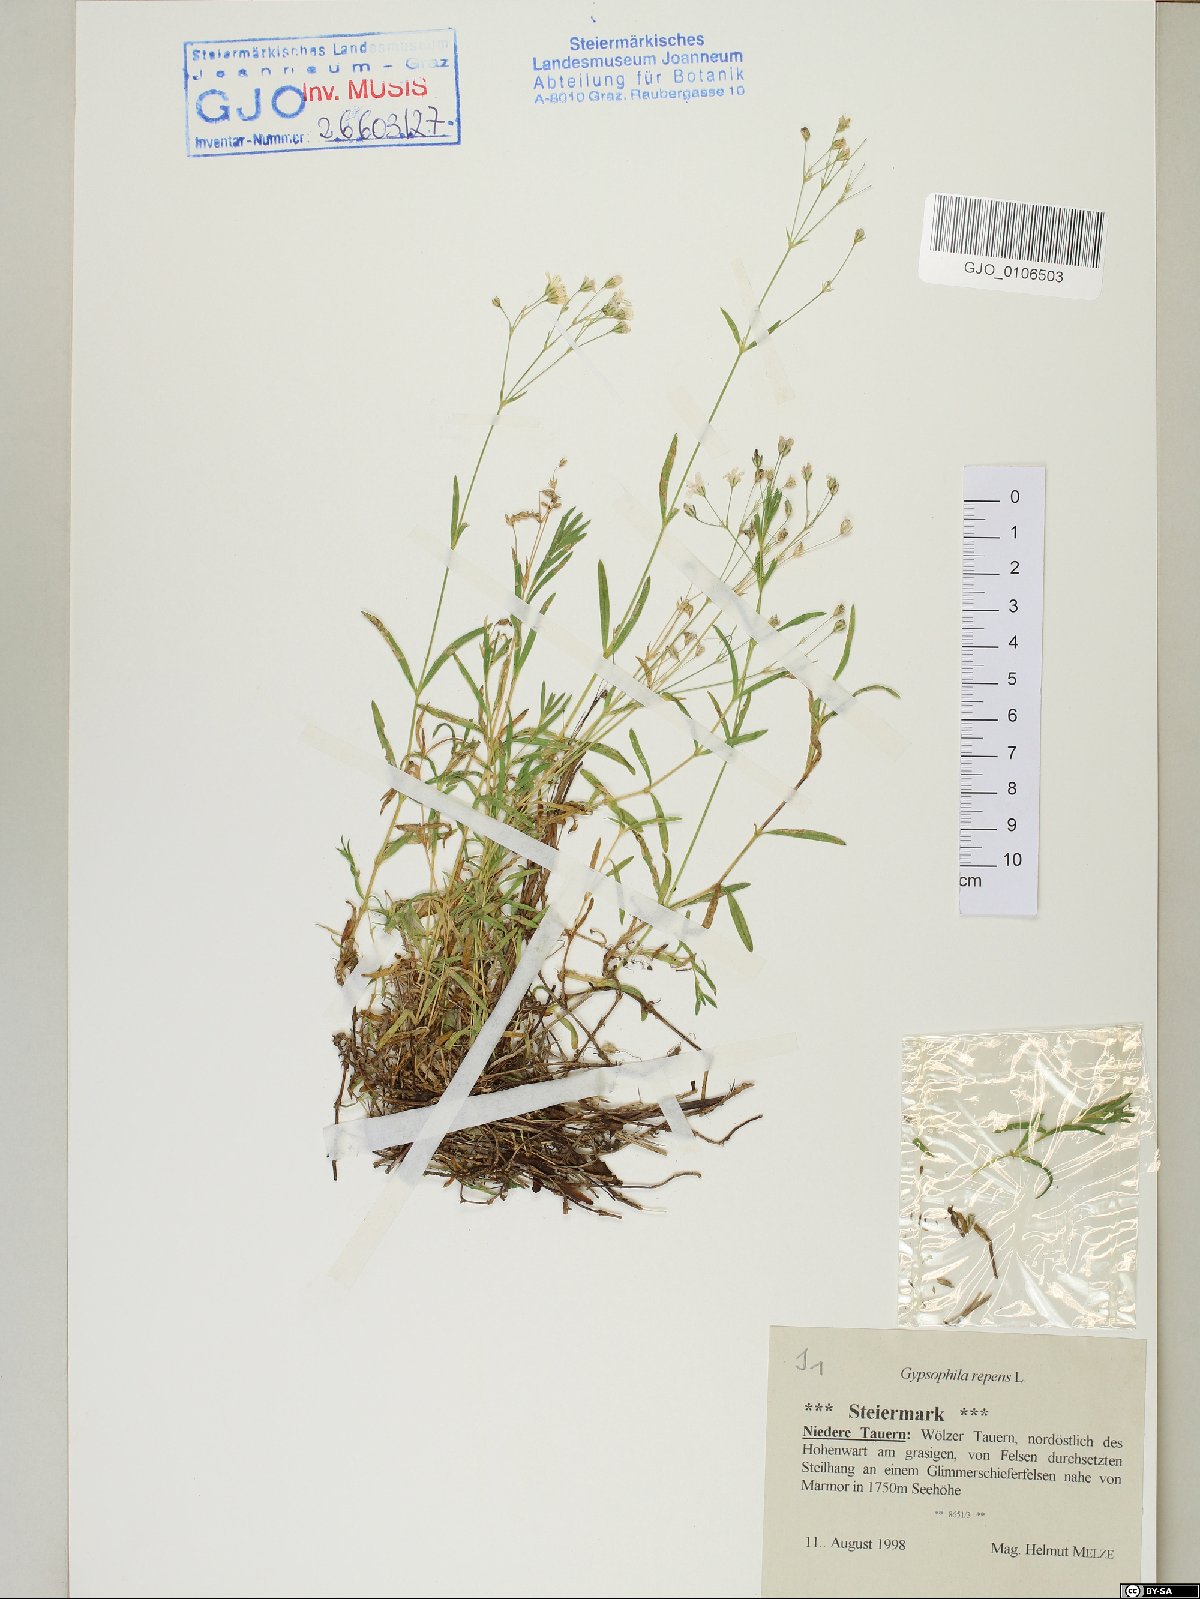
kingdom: Plantae
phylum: Tracheophyta
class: Magnoliopsida
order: Caryophyllales
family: Caryophyllaceae
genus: Gypsophila
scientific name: Gypsophila repens
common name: Creeping baby's-breath
